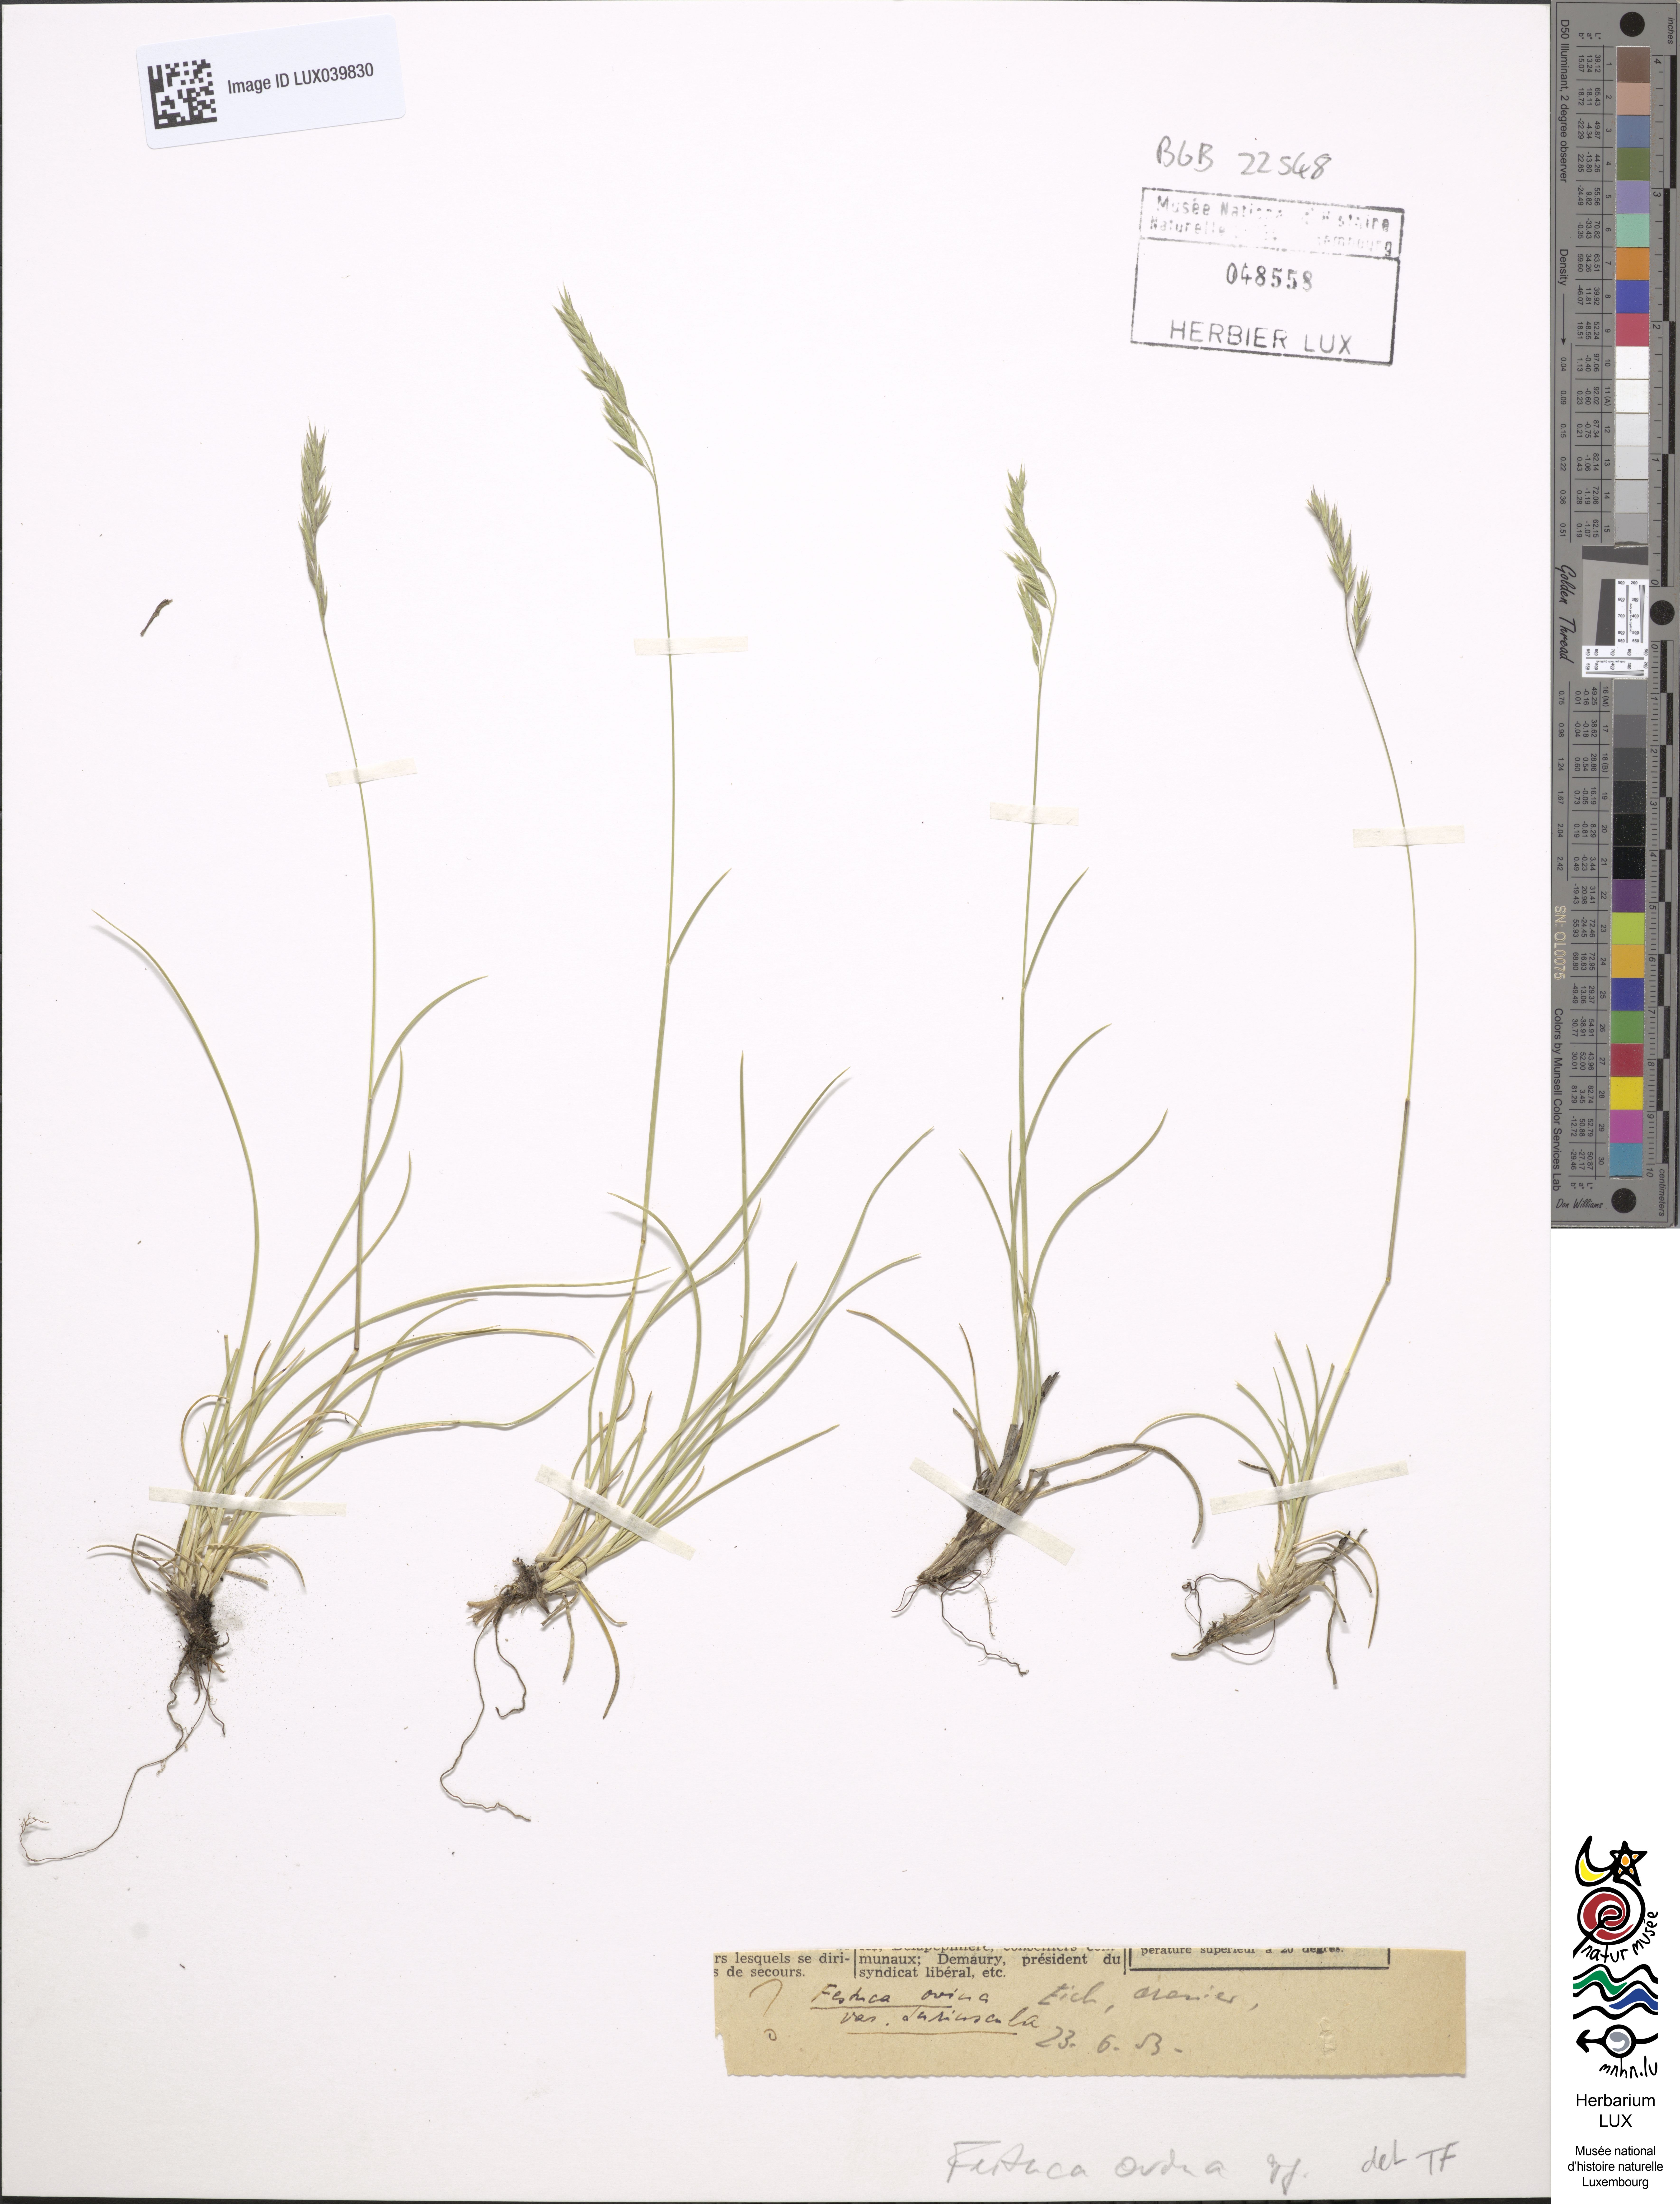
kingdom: Plantae
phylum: Tracheophyta
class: Liliopsida
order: Poales
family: Poaceae
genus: Festuca
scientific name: Festuca ovina
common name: Sheep fescue
